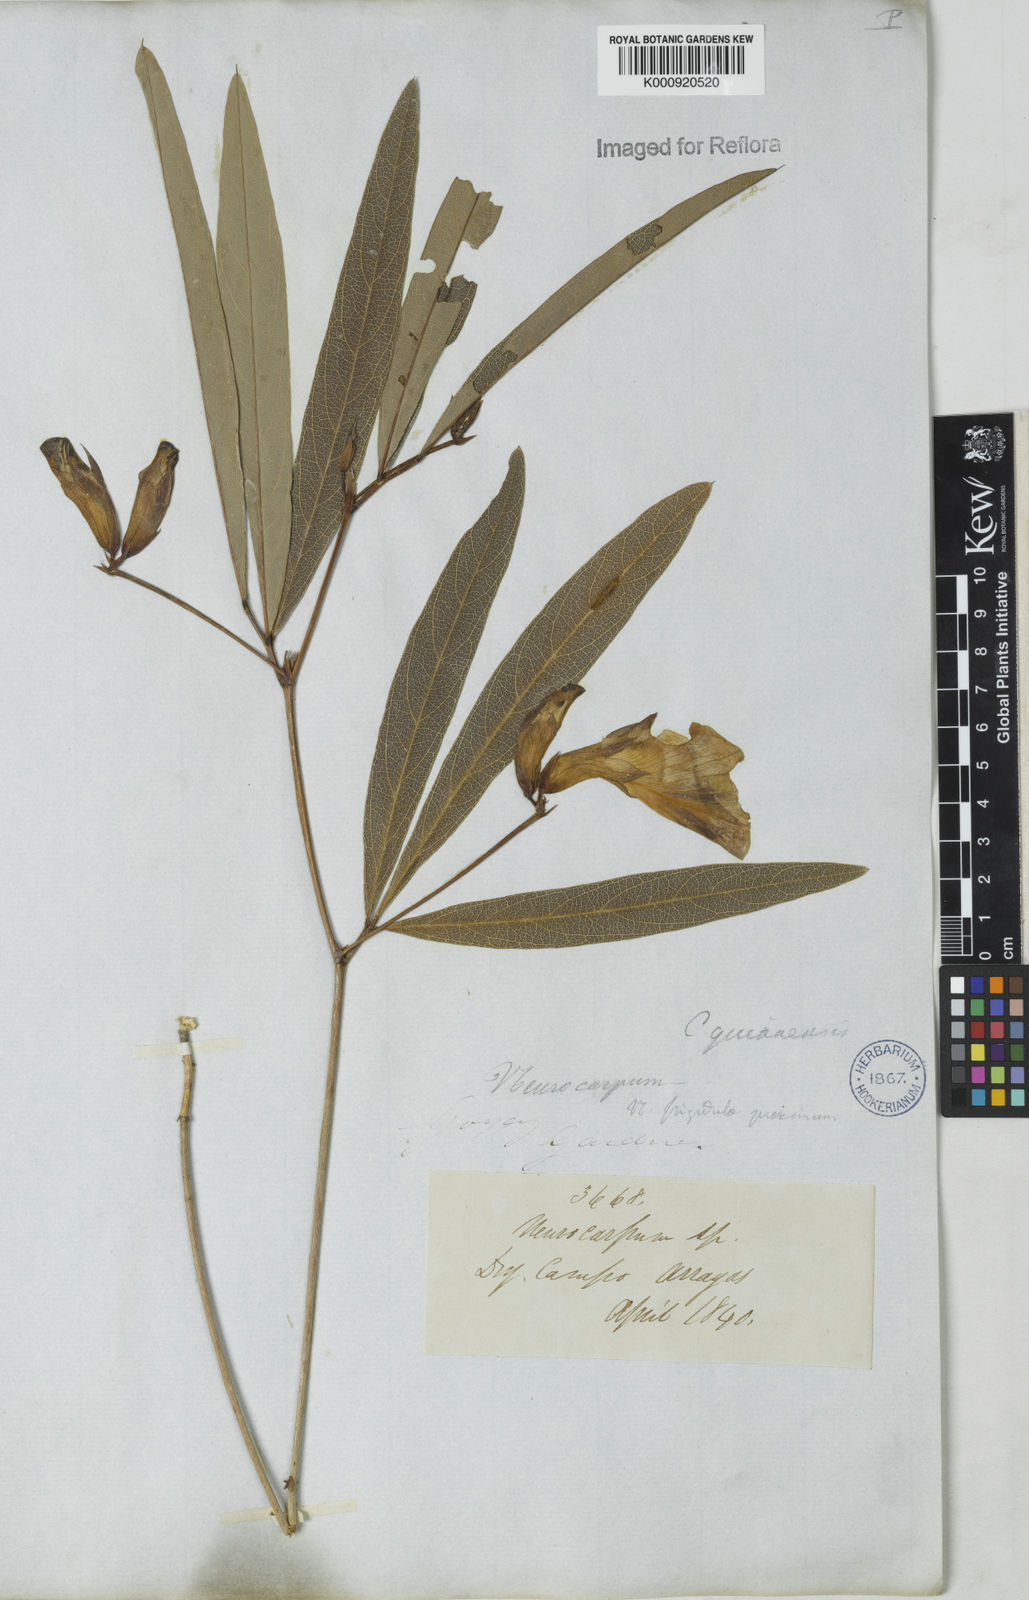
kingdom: Plantae
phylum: Tracheophyta
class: Magnoliopsida
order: Fabales
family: Fabaceae
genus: Clitoria
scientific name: Clitoria guianensis
